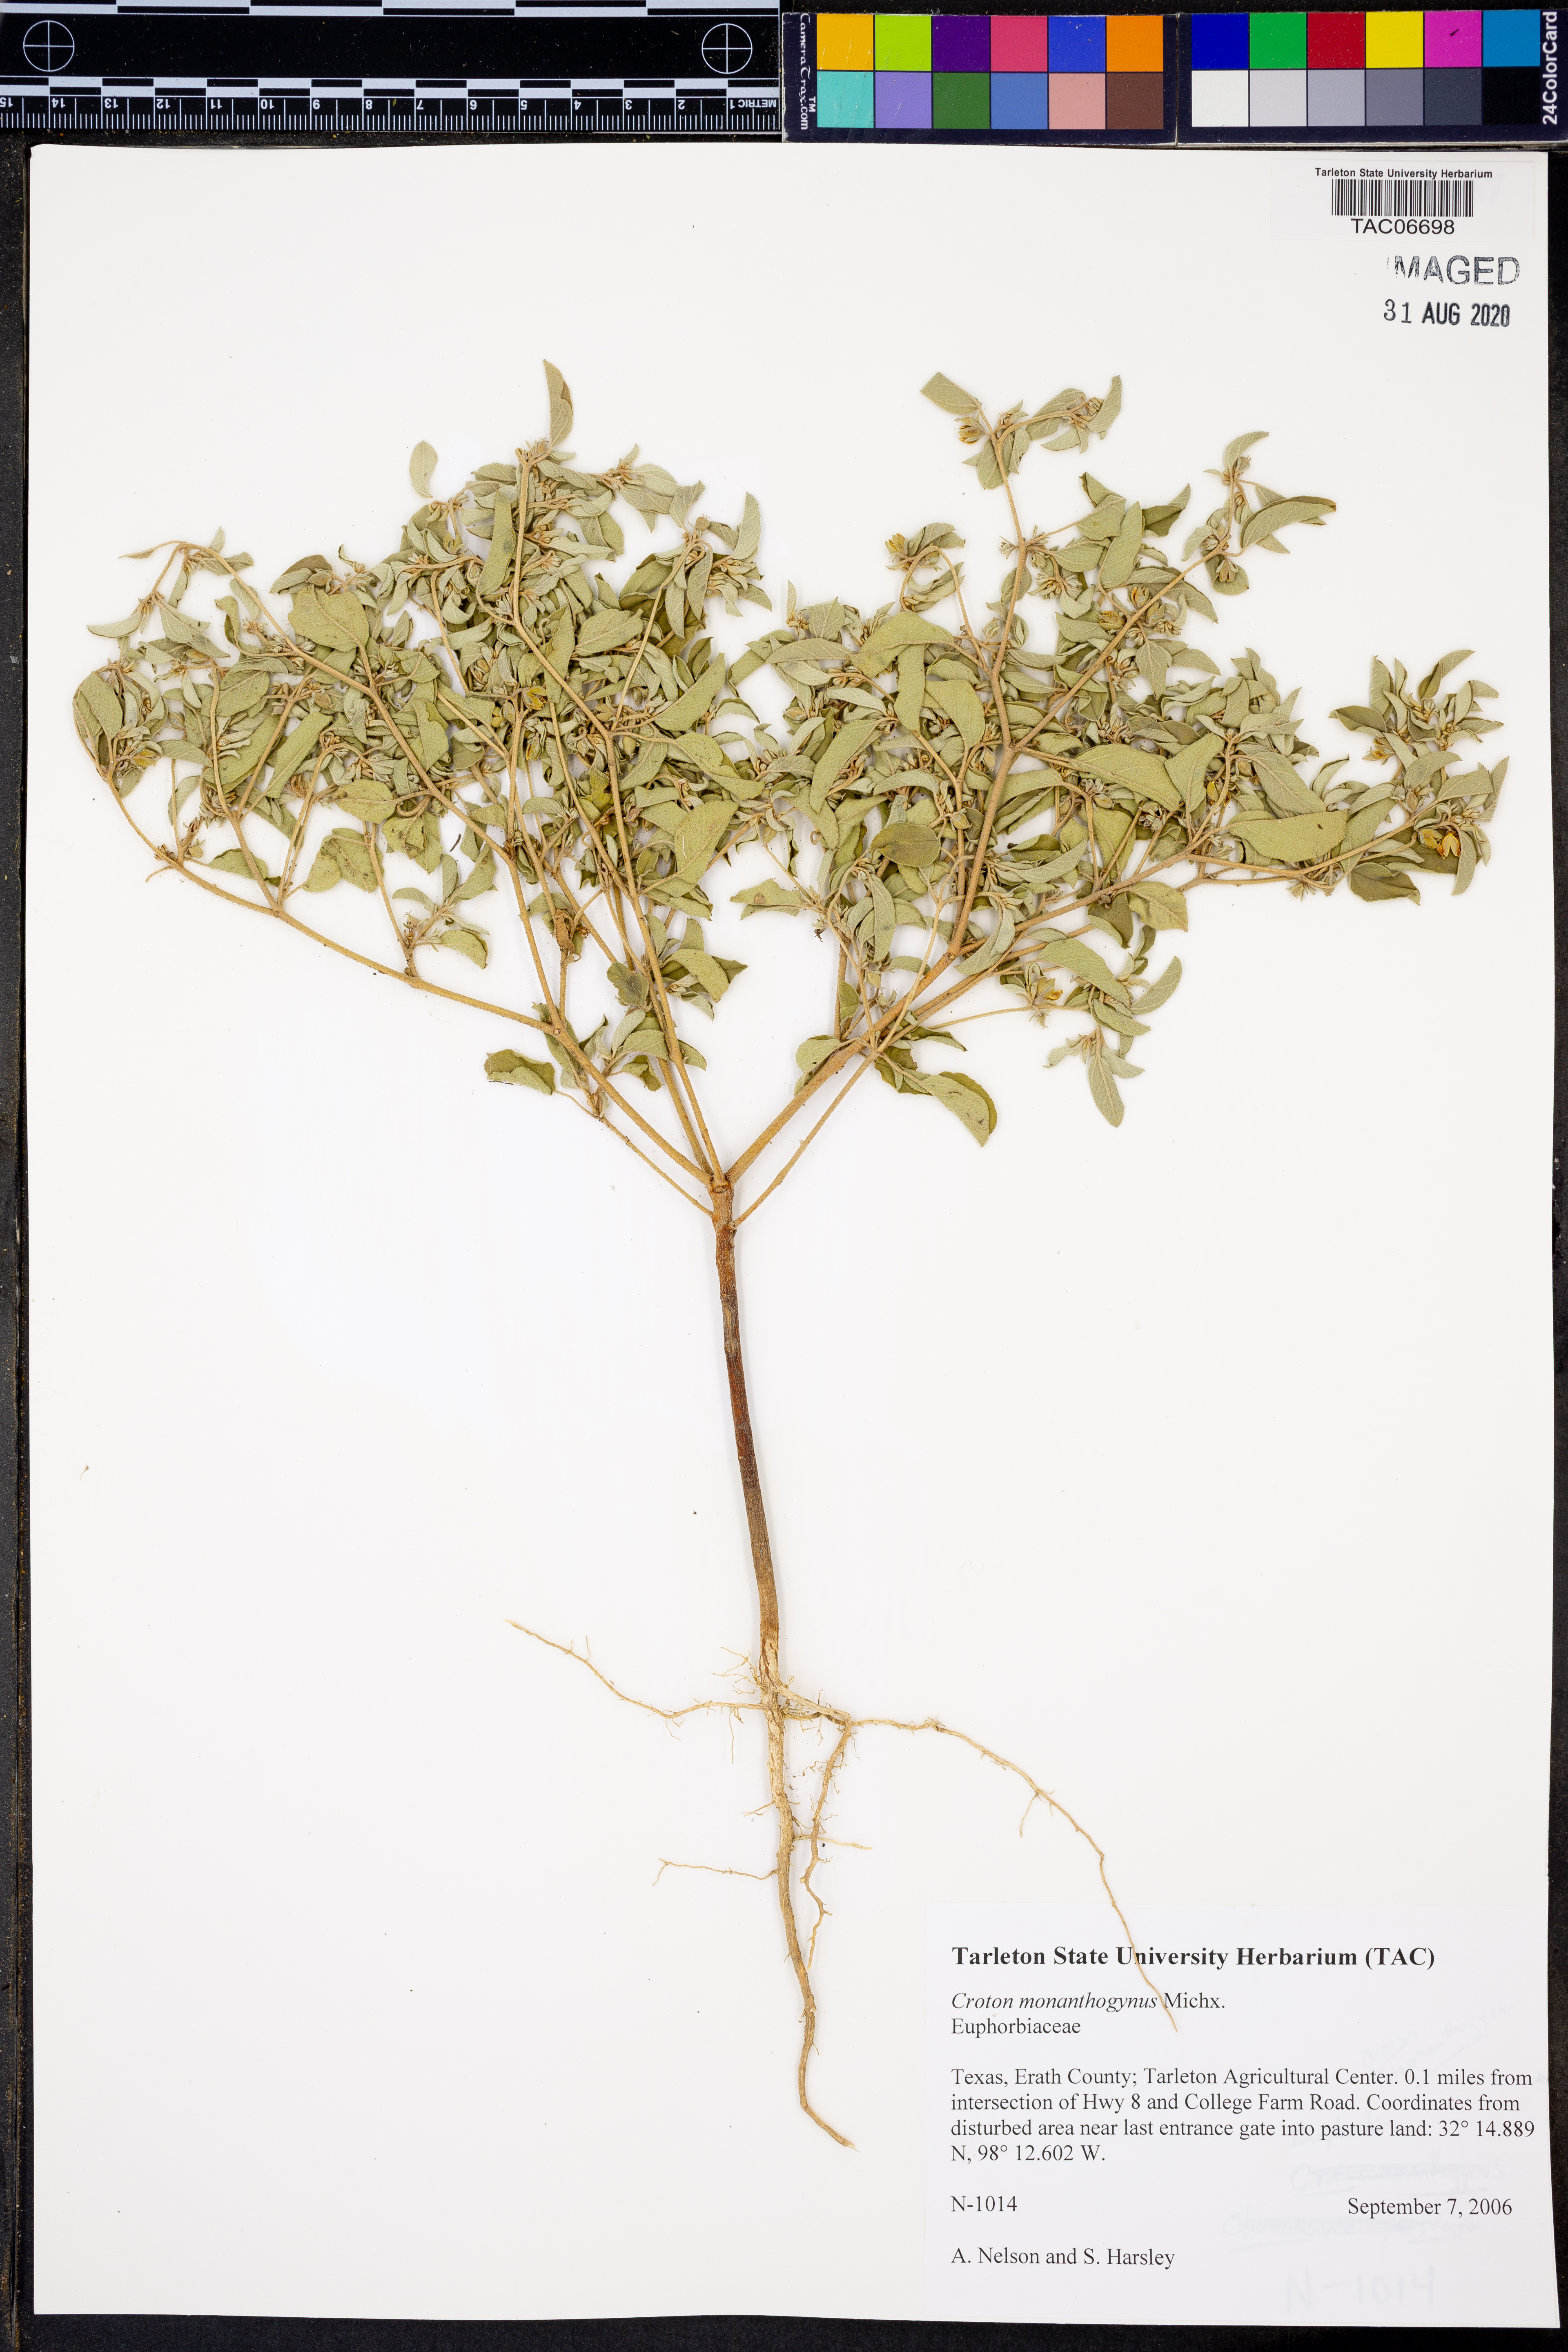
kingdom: Plantae
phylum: Tracheophyta
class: Magnoliopsida
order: Malpighiales
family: Euphorbiaceae
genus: Croton
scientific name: Croton monanthogynus
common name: One-seed croton
